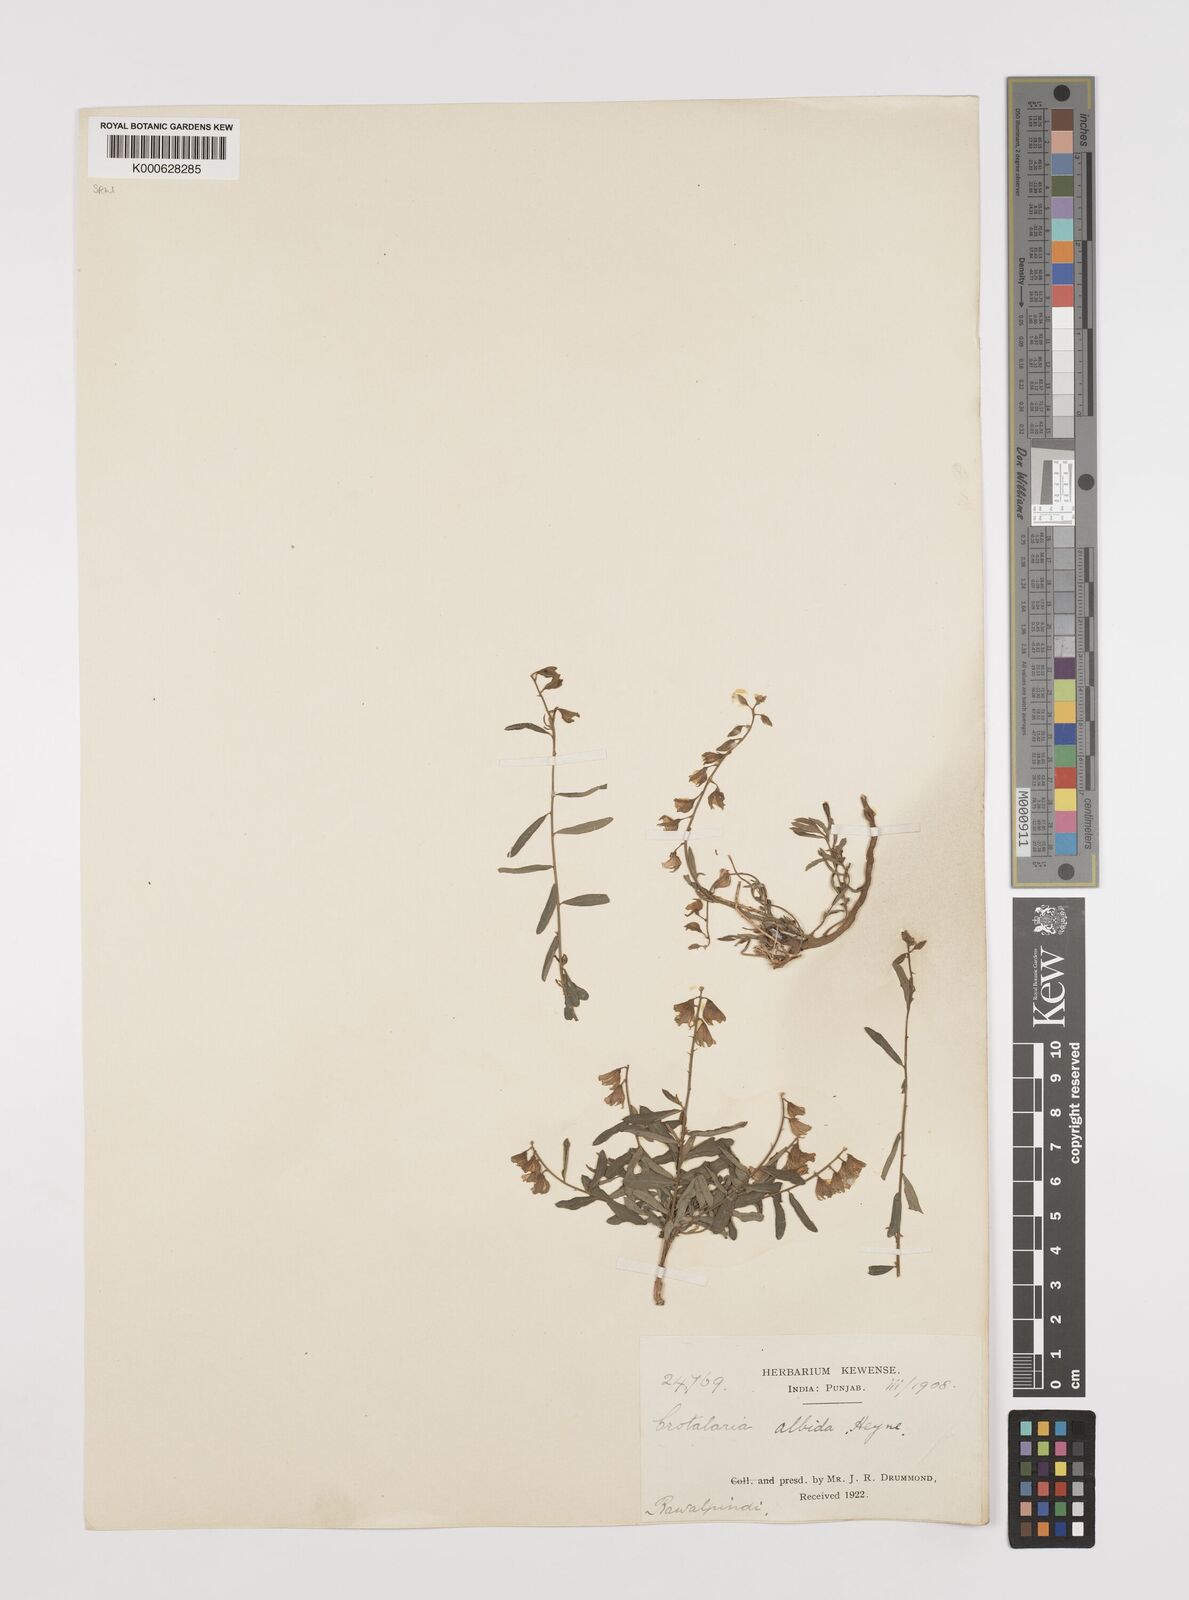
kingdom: Plantae
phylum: Tracheophyta
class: Magnoliopsida
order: Fabales
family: Fabaceae
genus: Crotalaria
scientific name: Crotalaria albida
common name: Taiwan crotalaria
